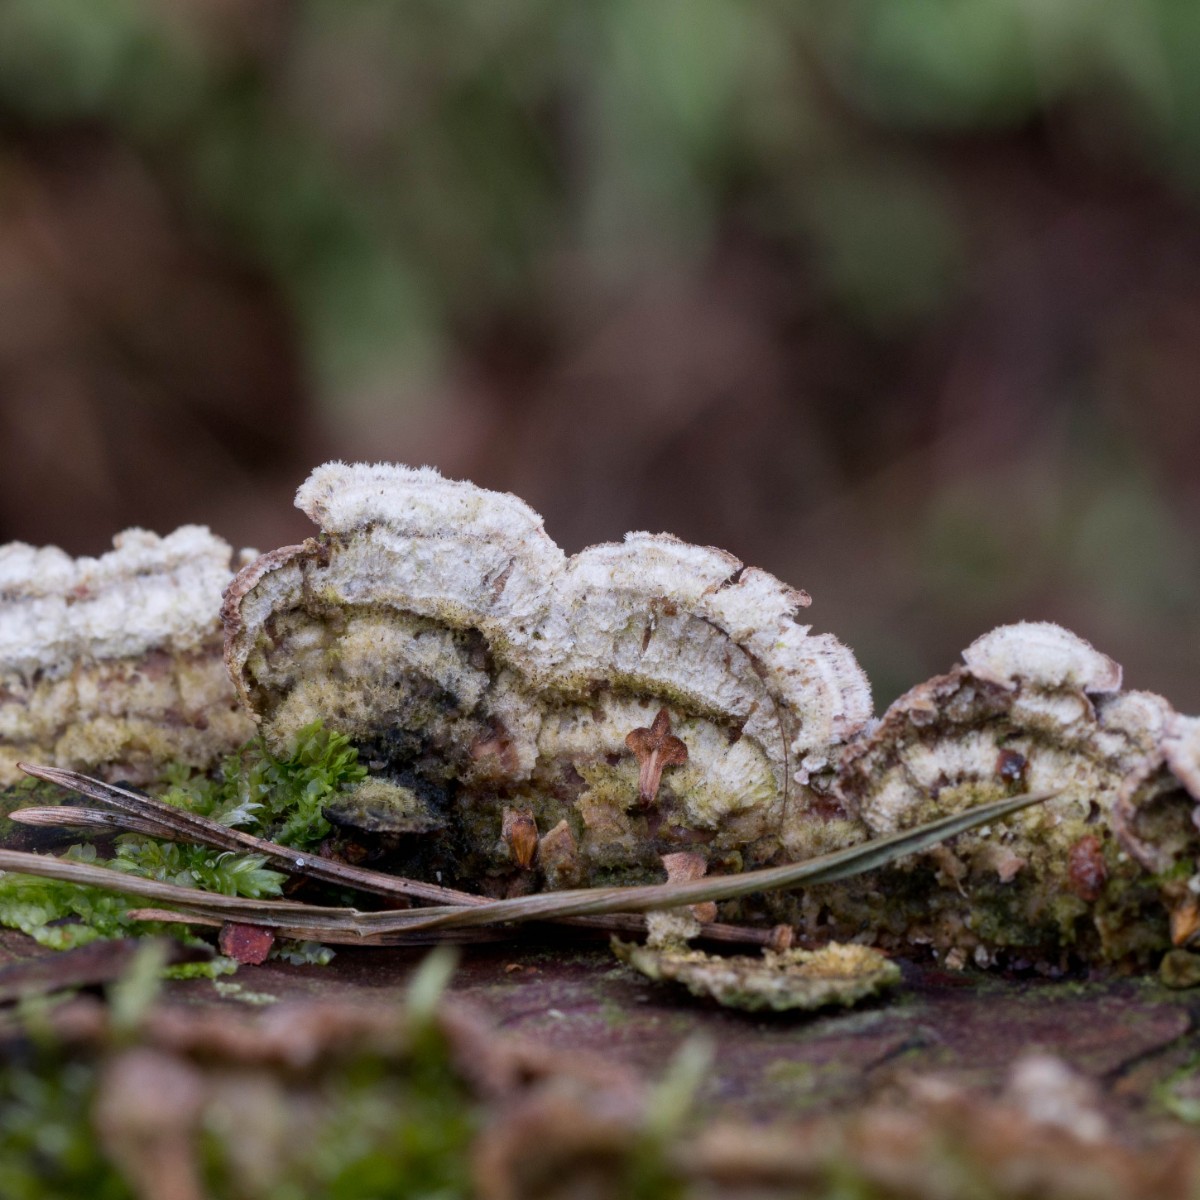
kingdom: Fungi
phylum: Basidiomycota
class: Agaricomycetes
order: Hymenochaetales
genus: Trichaptum
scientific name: Trichaptum fuscoviolaceum
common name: tandet violporesvamp
